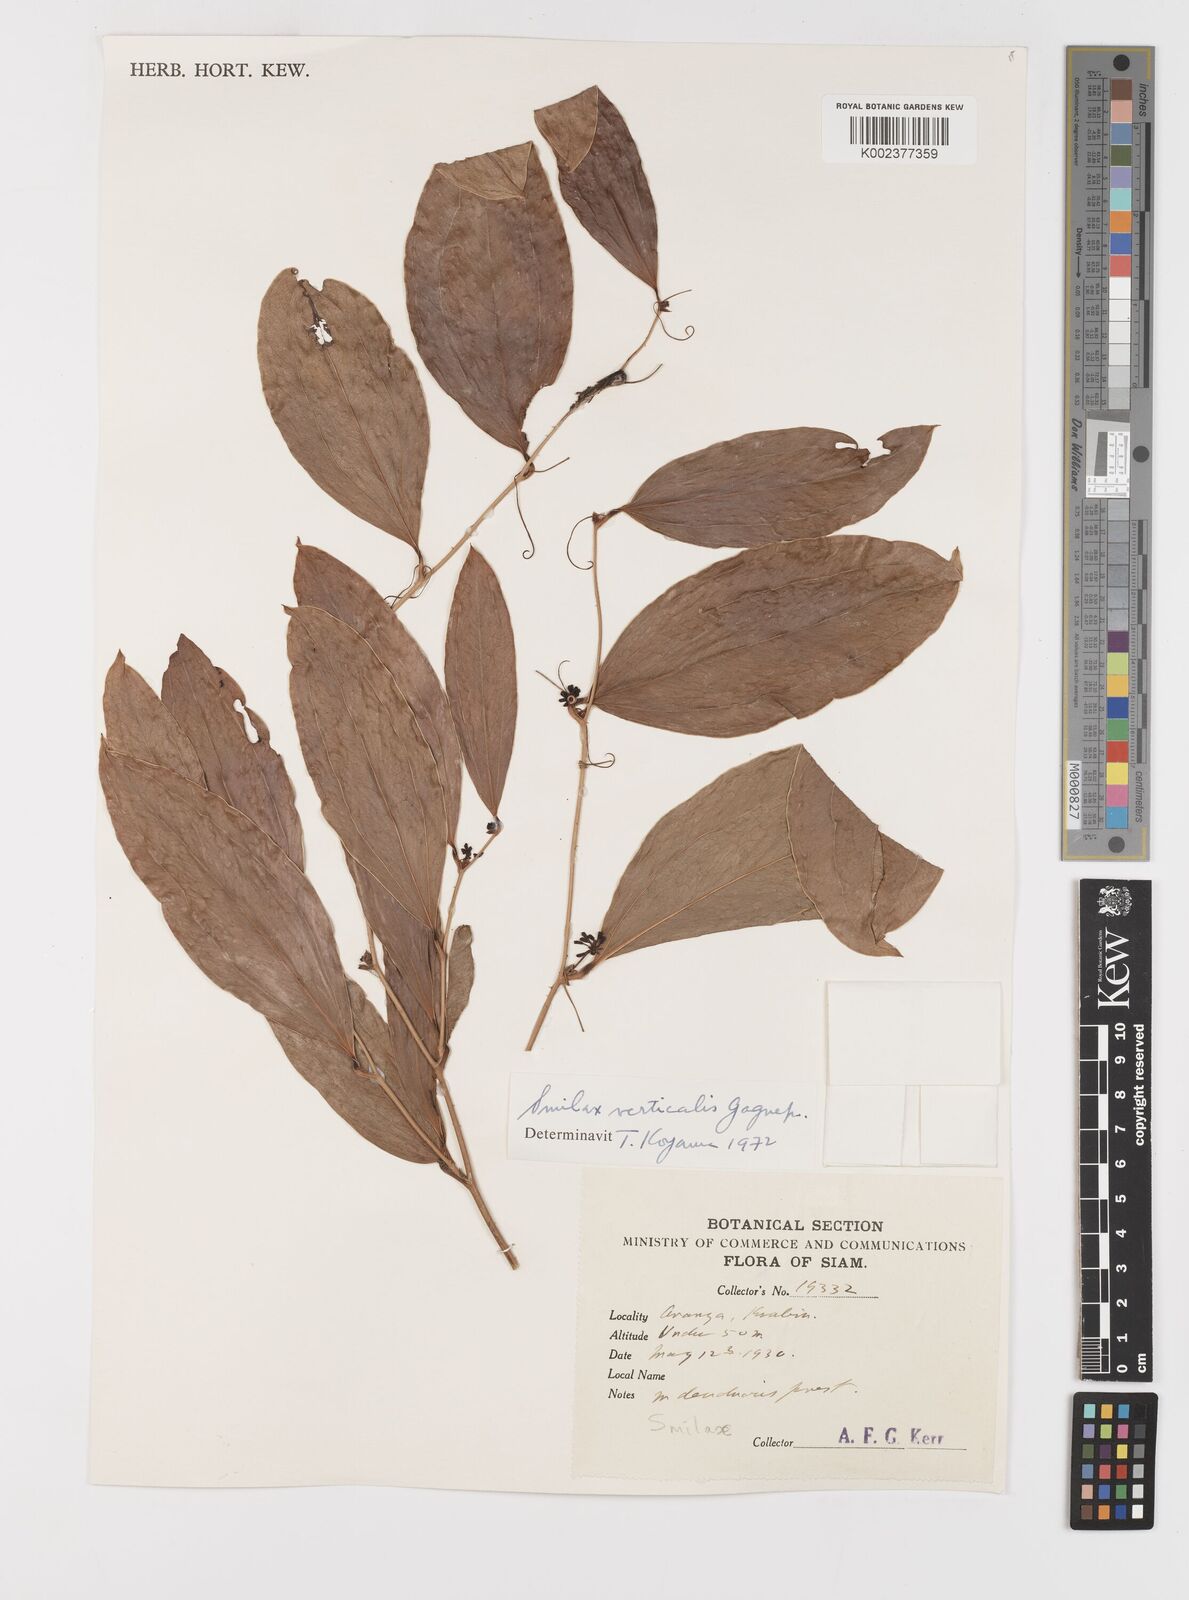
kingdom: Plantae
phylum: Tracheophyta
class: Liliopsida
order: Liliales
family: Smilacaceae
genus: Smilax
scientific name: Smilax verticalis
